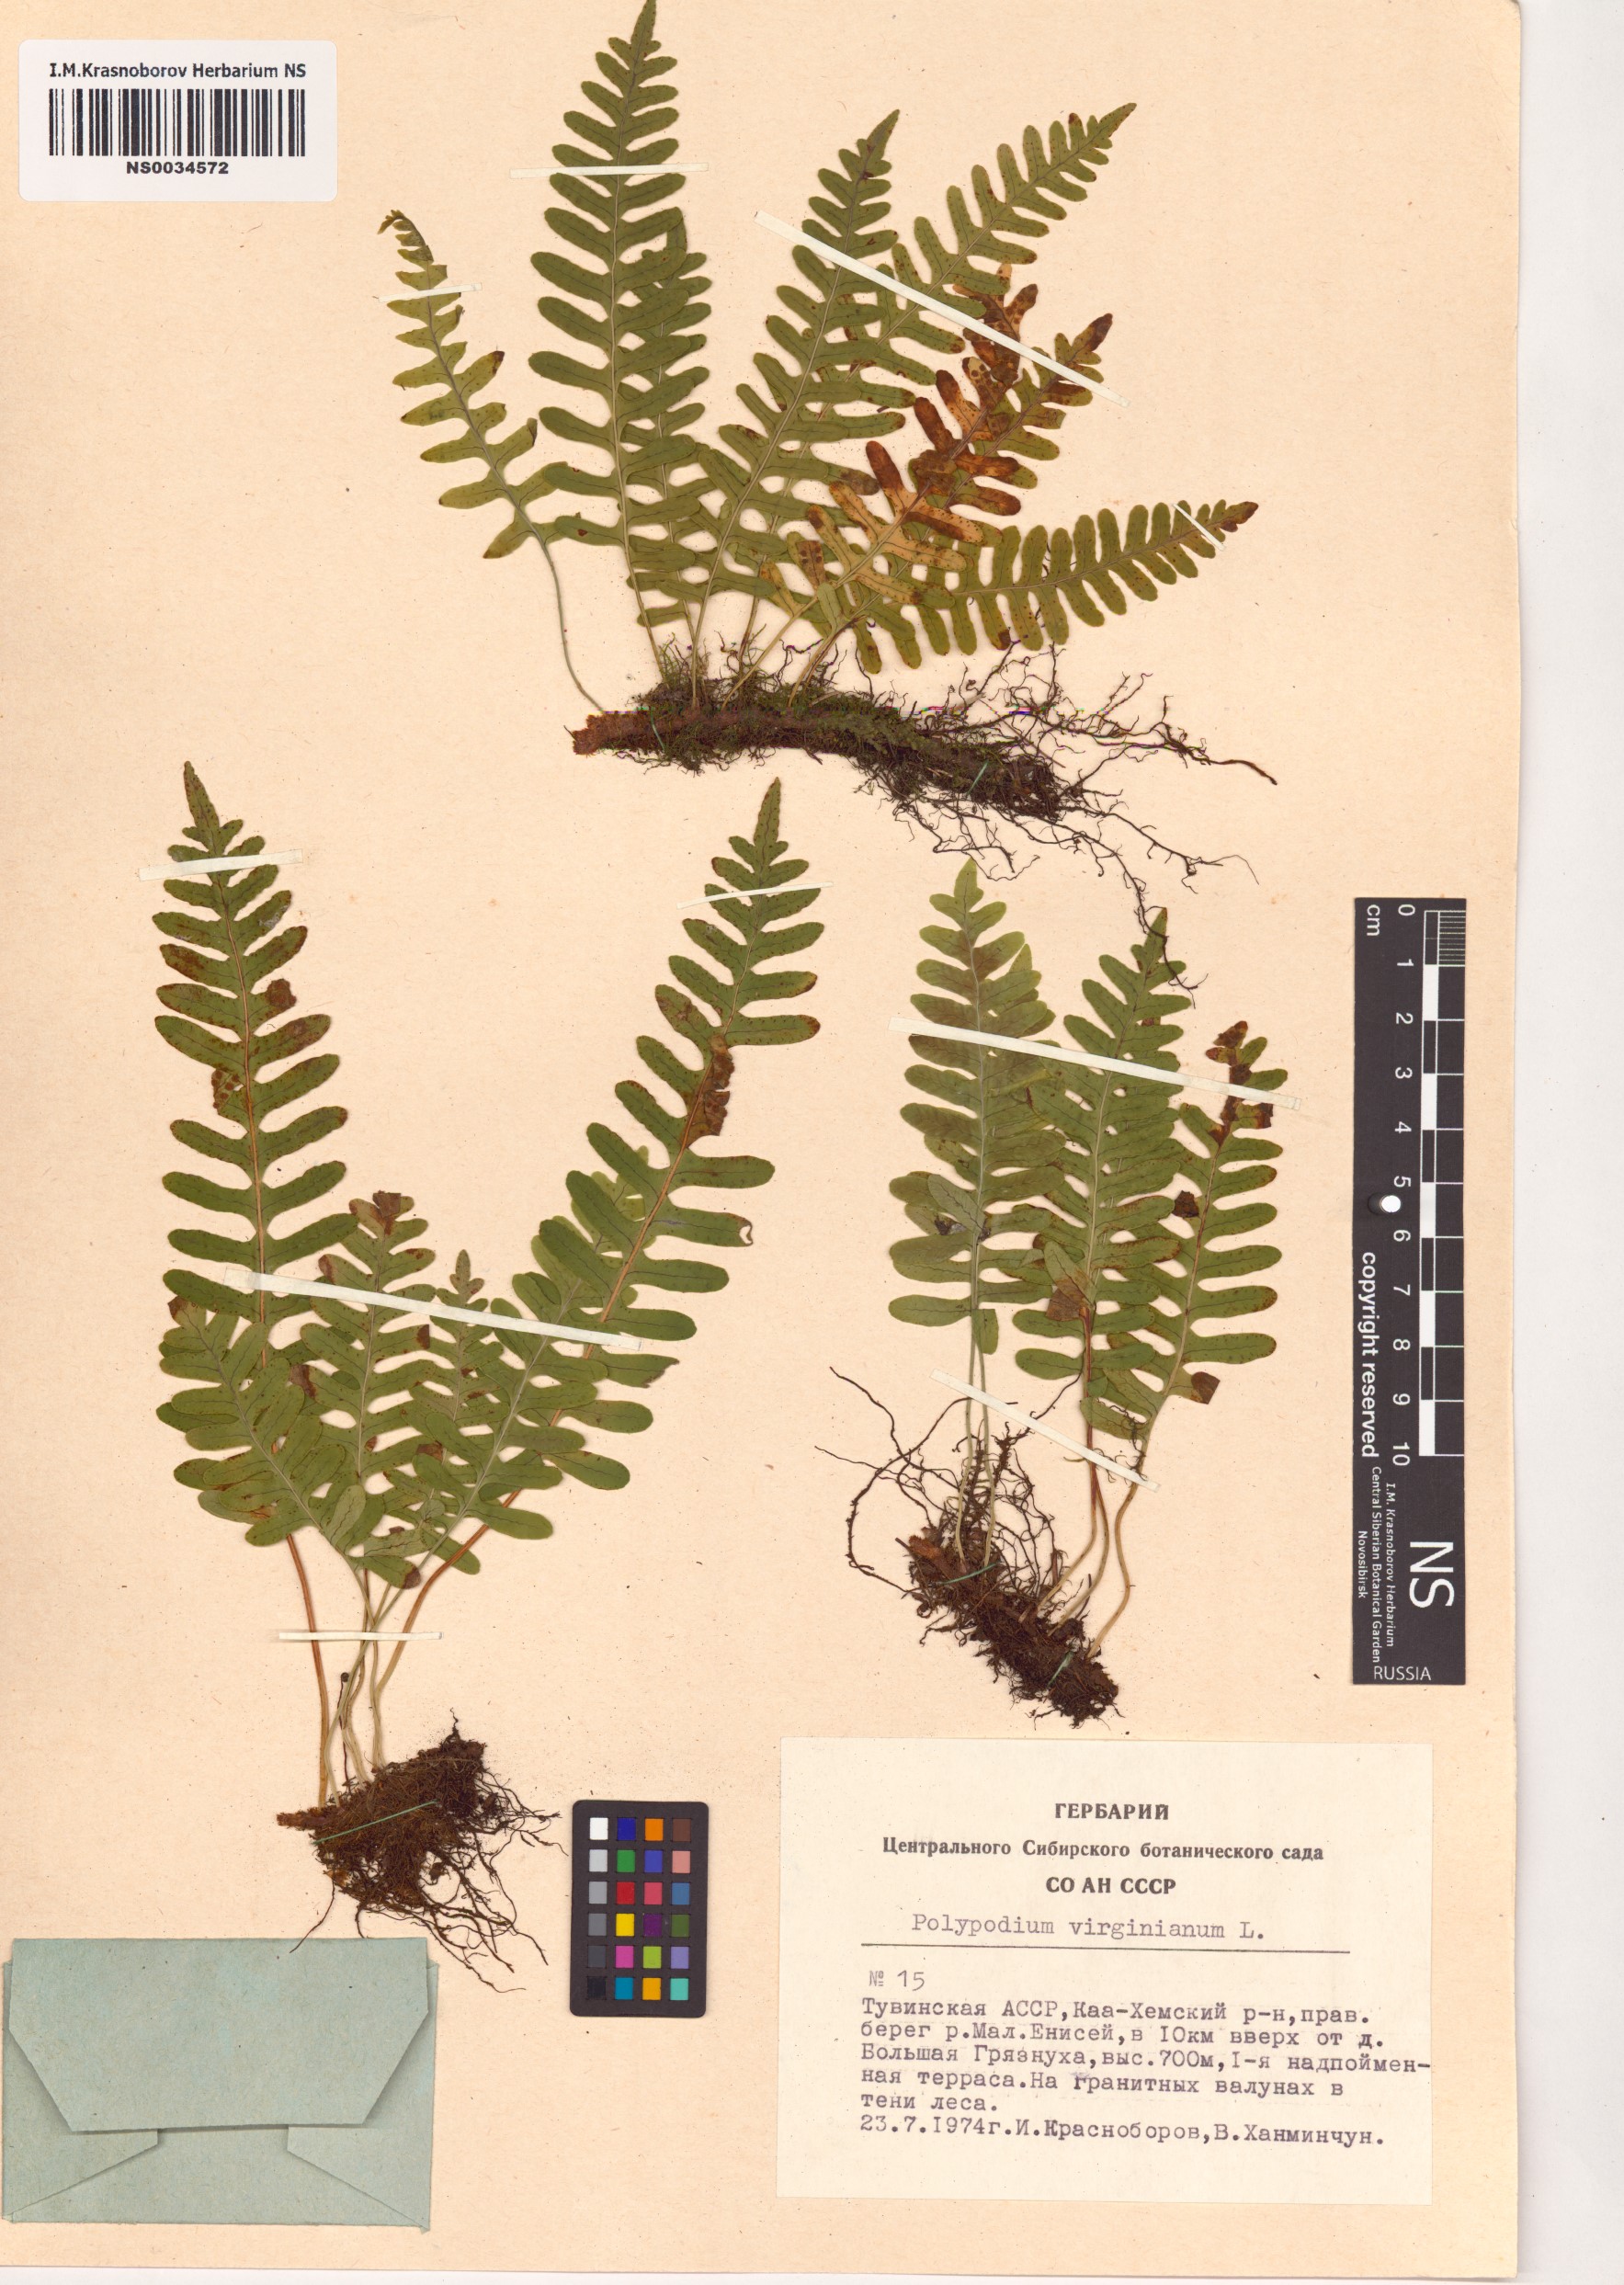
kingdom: Plantae
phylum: Tracheophyta
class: Polypodiopsida
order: Polypodiales
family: Polypodiaceae
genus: Polypodium
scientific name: Polypodium virginianum
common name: American wall fern
